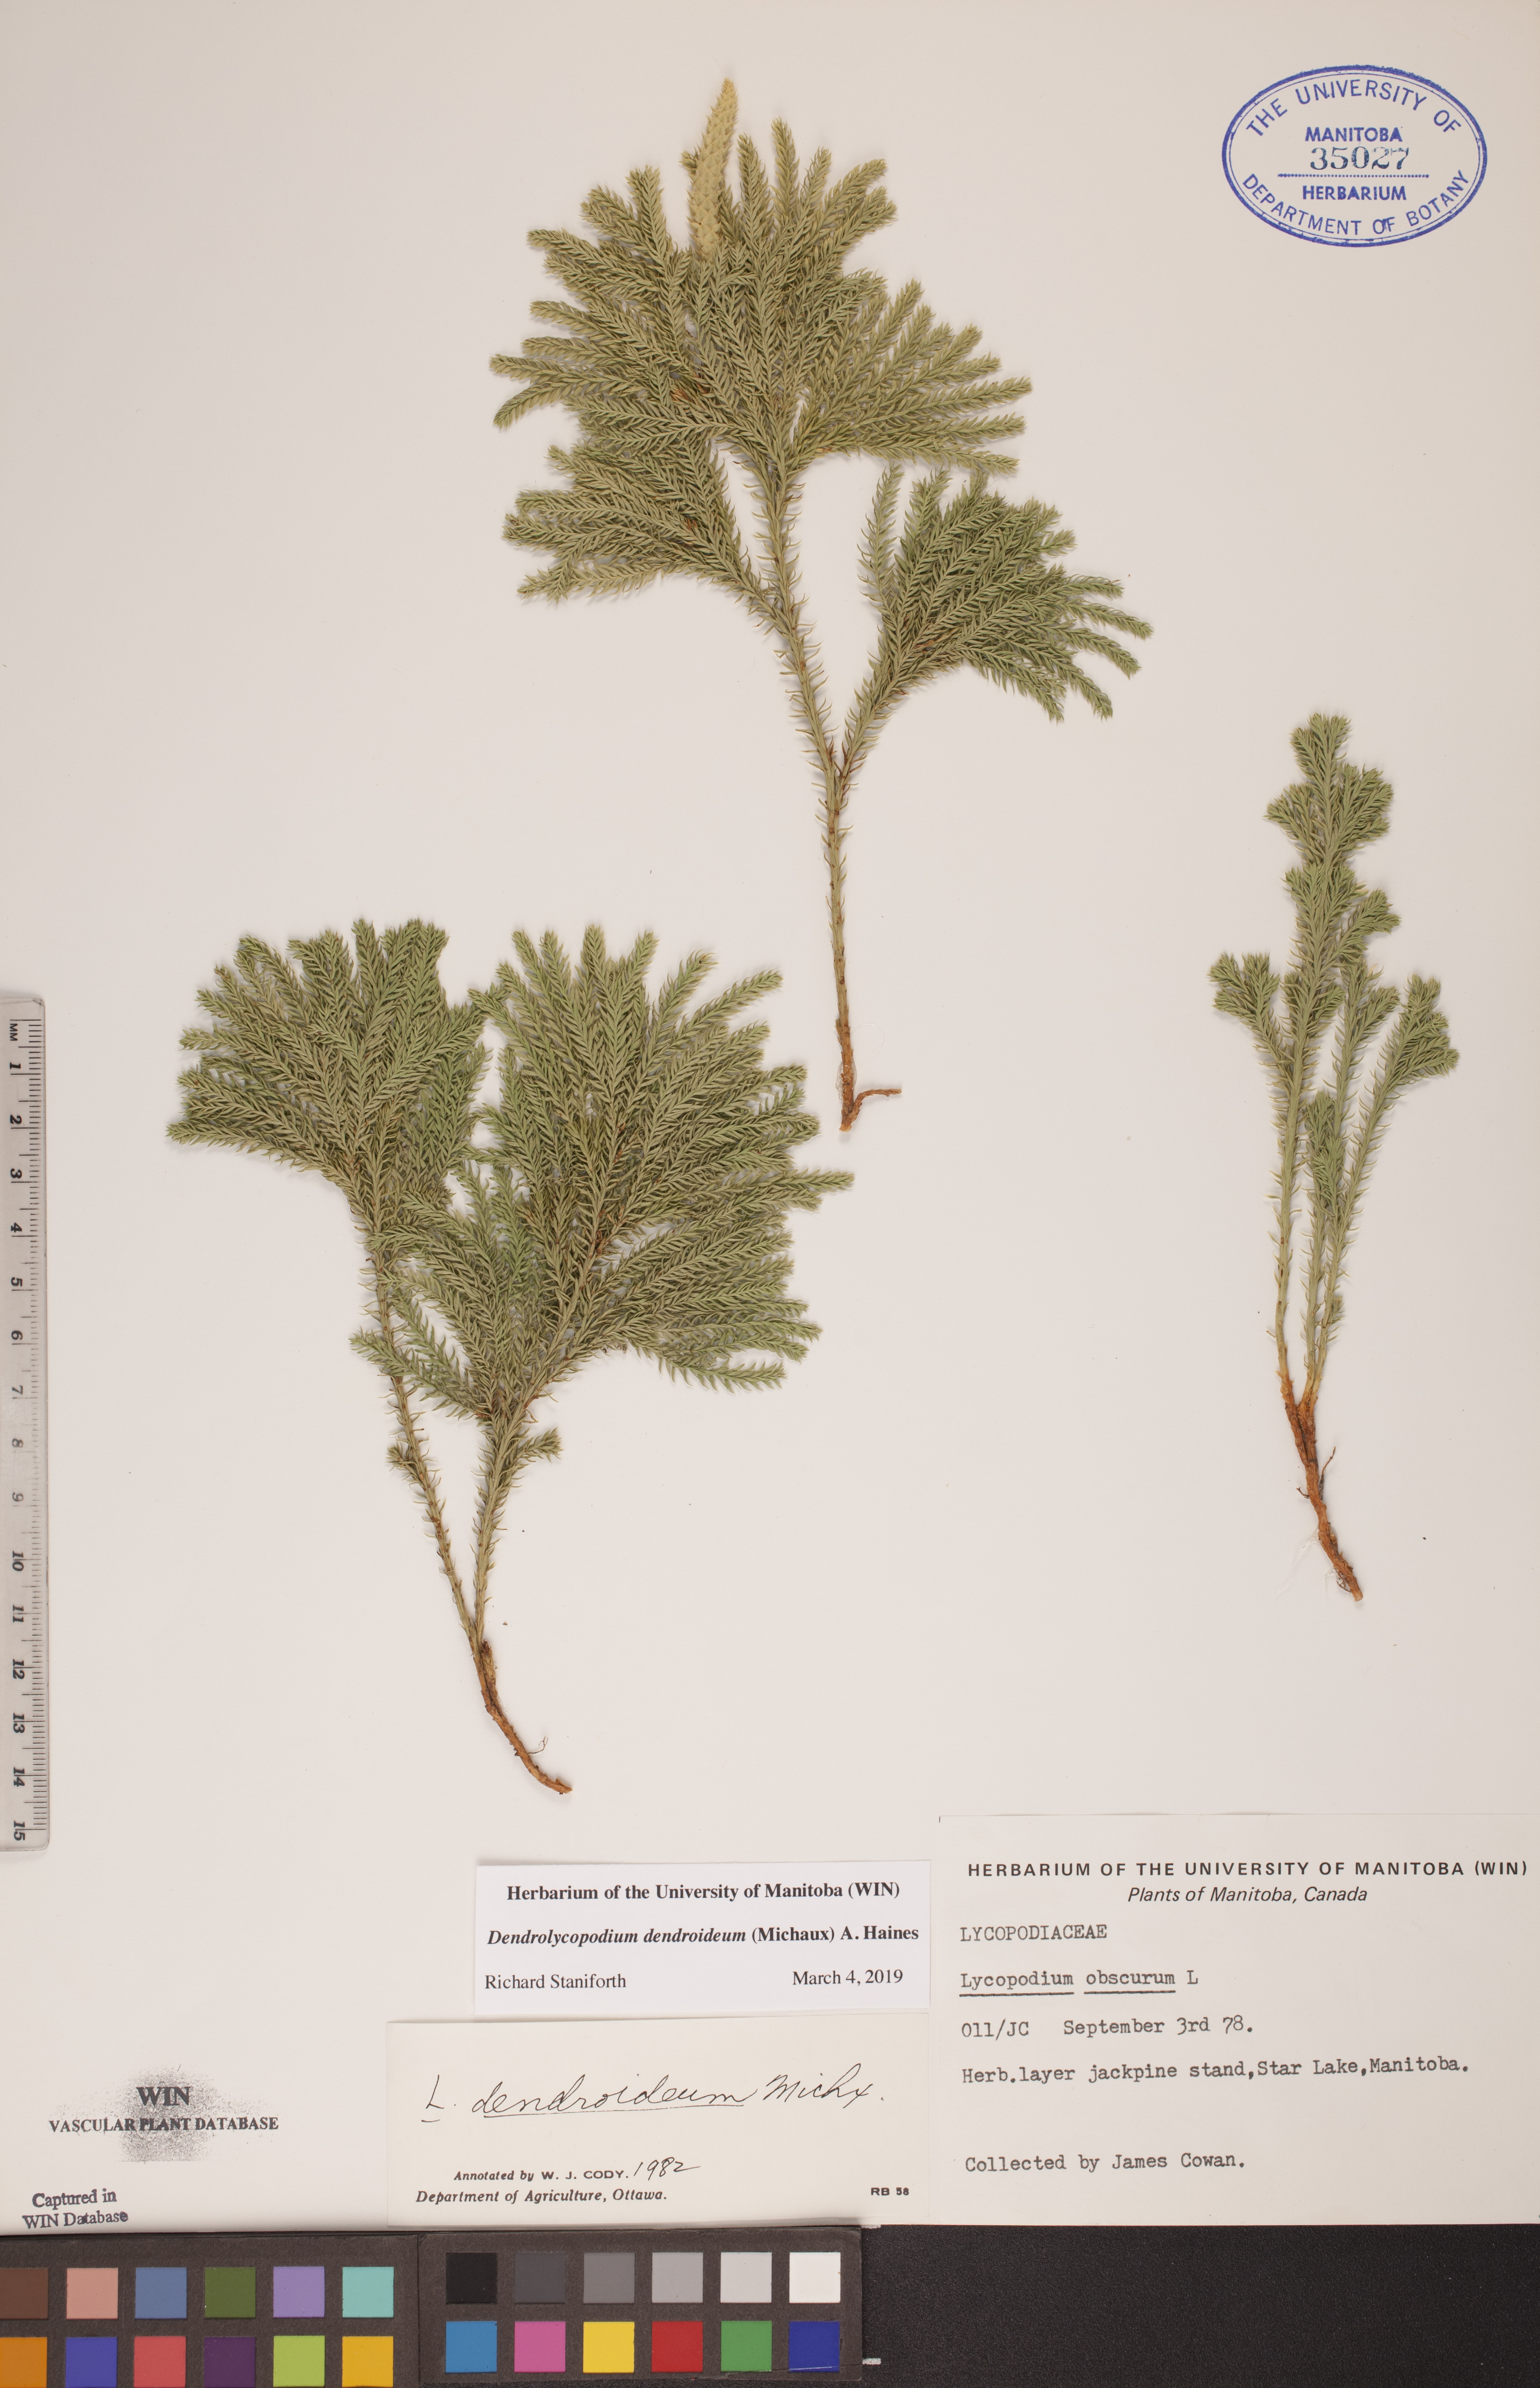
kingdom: Plantae
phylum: Tracheophyta
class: Lycopodiopsida
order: Lycopodiales
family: Lycopodiaceae
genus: Dendrolycopodium
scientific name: Dendrolycopodium dendroideum
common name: Northern tree-clubmoss
